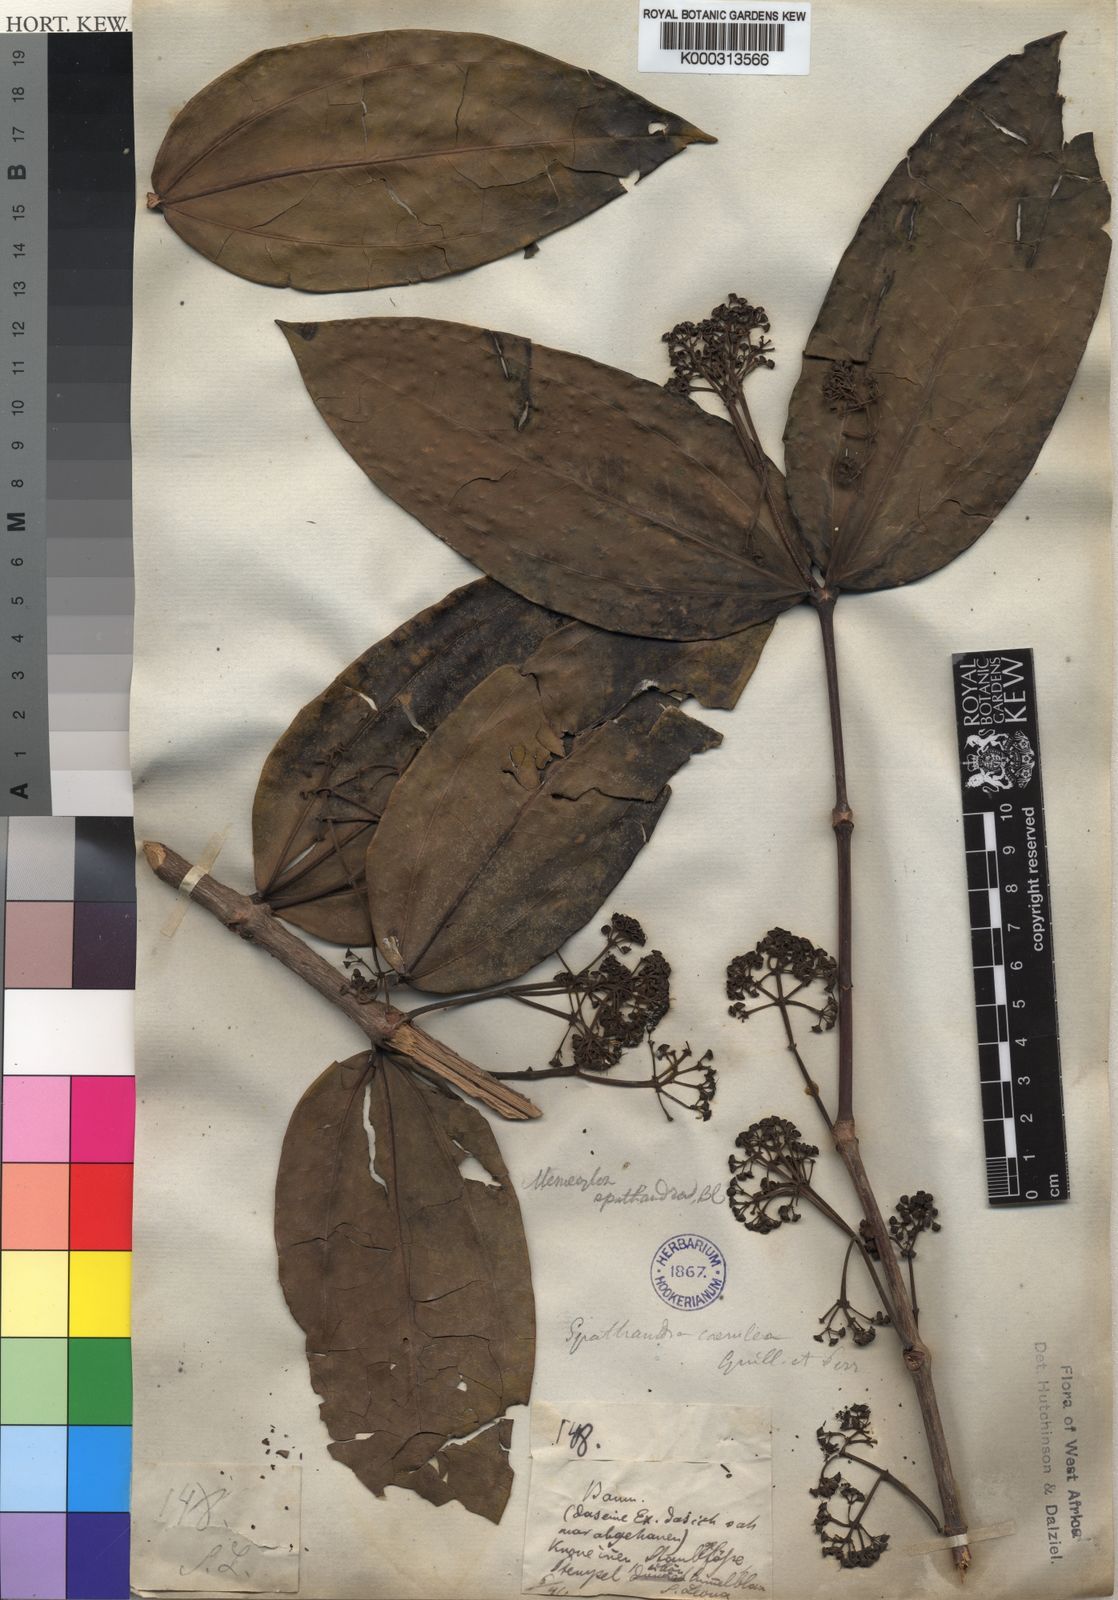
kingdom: Plantae
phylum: Tracheophyta
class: Magnoliopsida
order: Myrtales
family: Melastomataceae
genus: Spathandra
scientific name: Spathandra blakeoides
